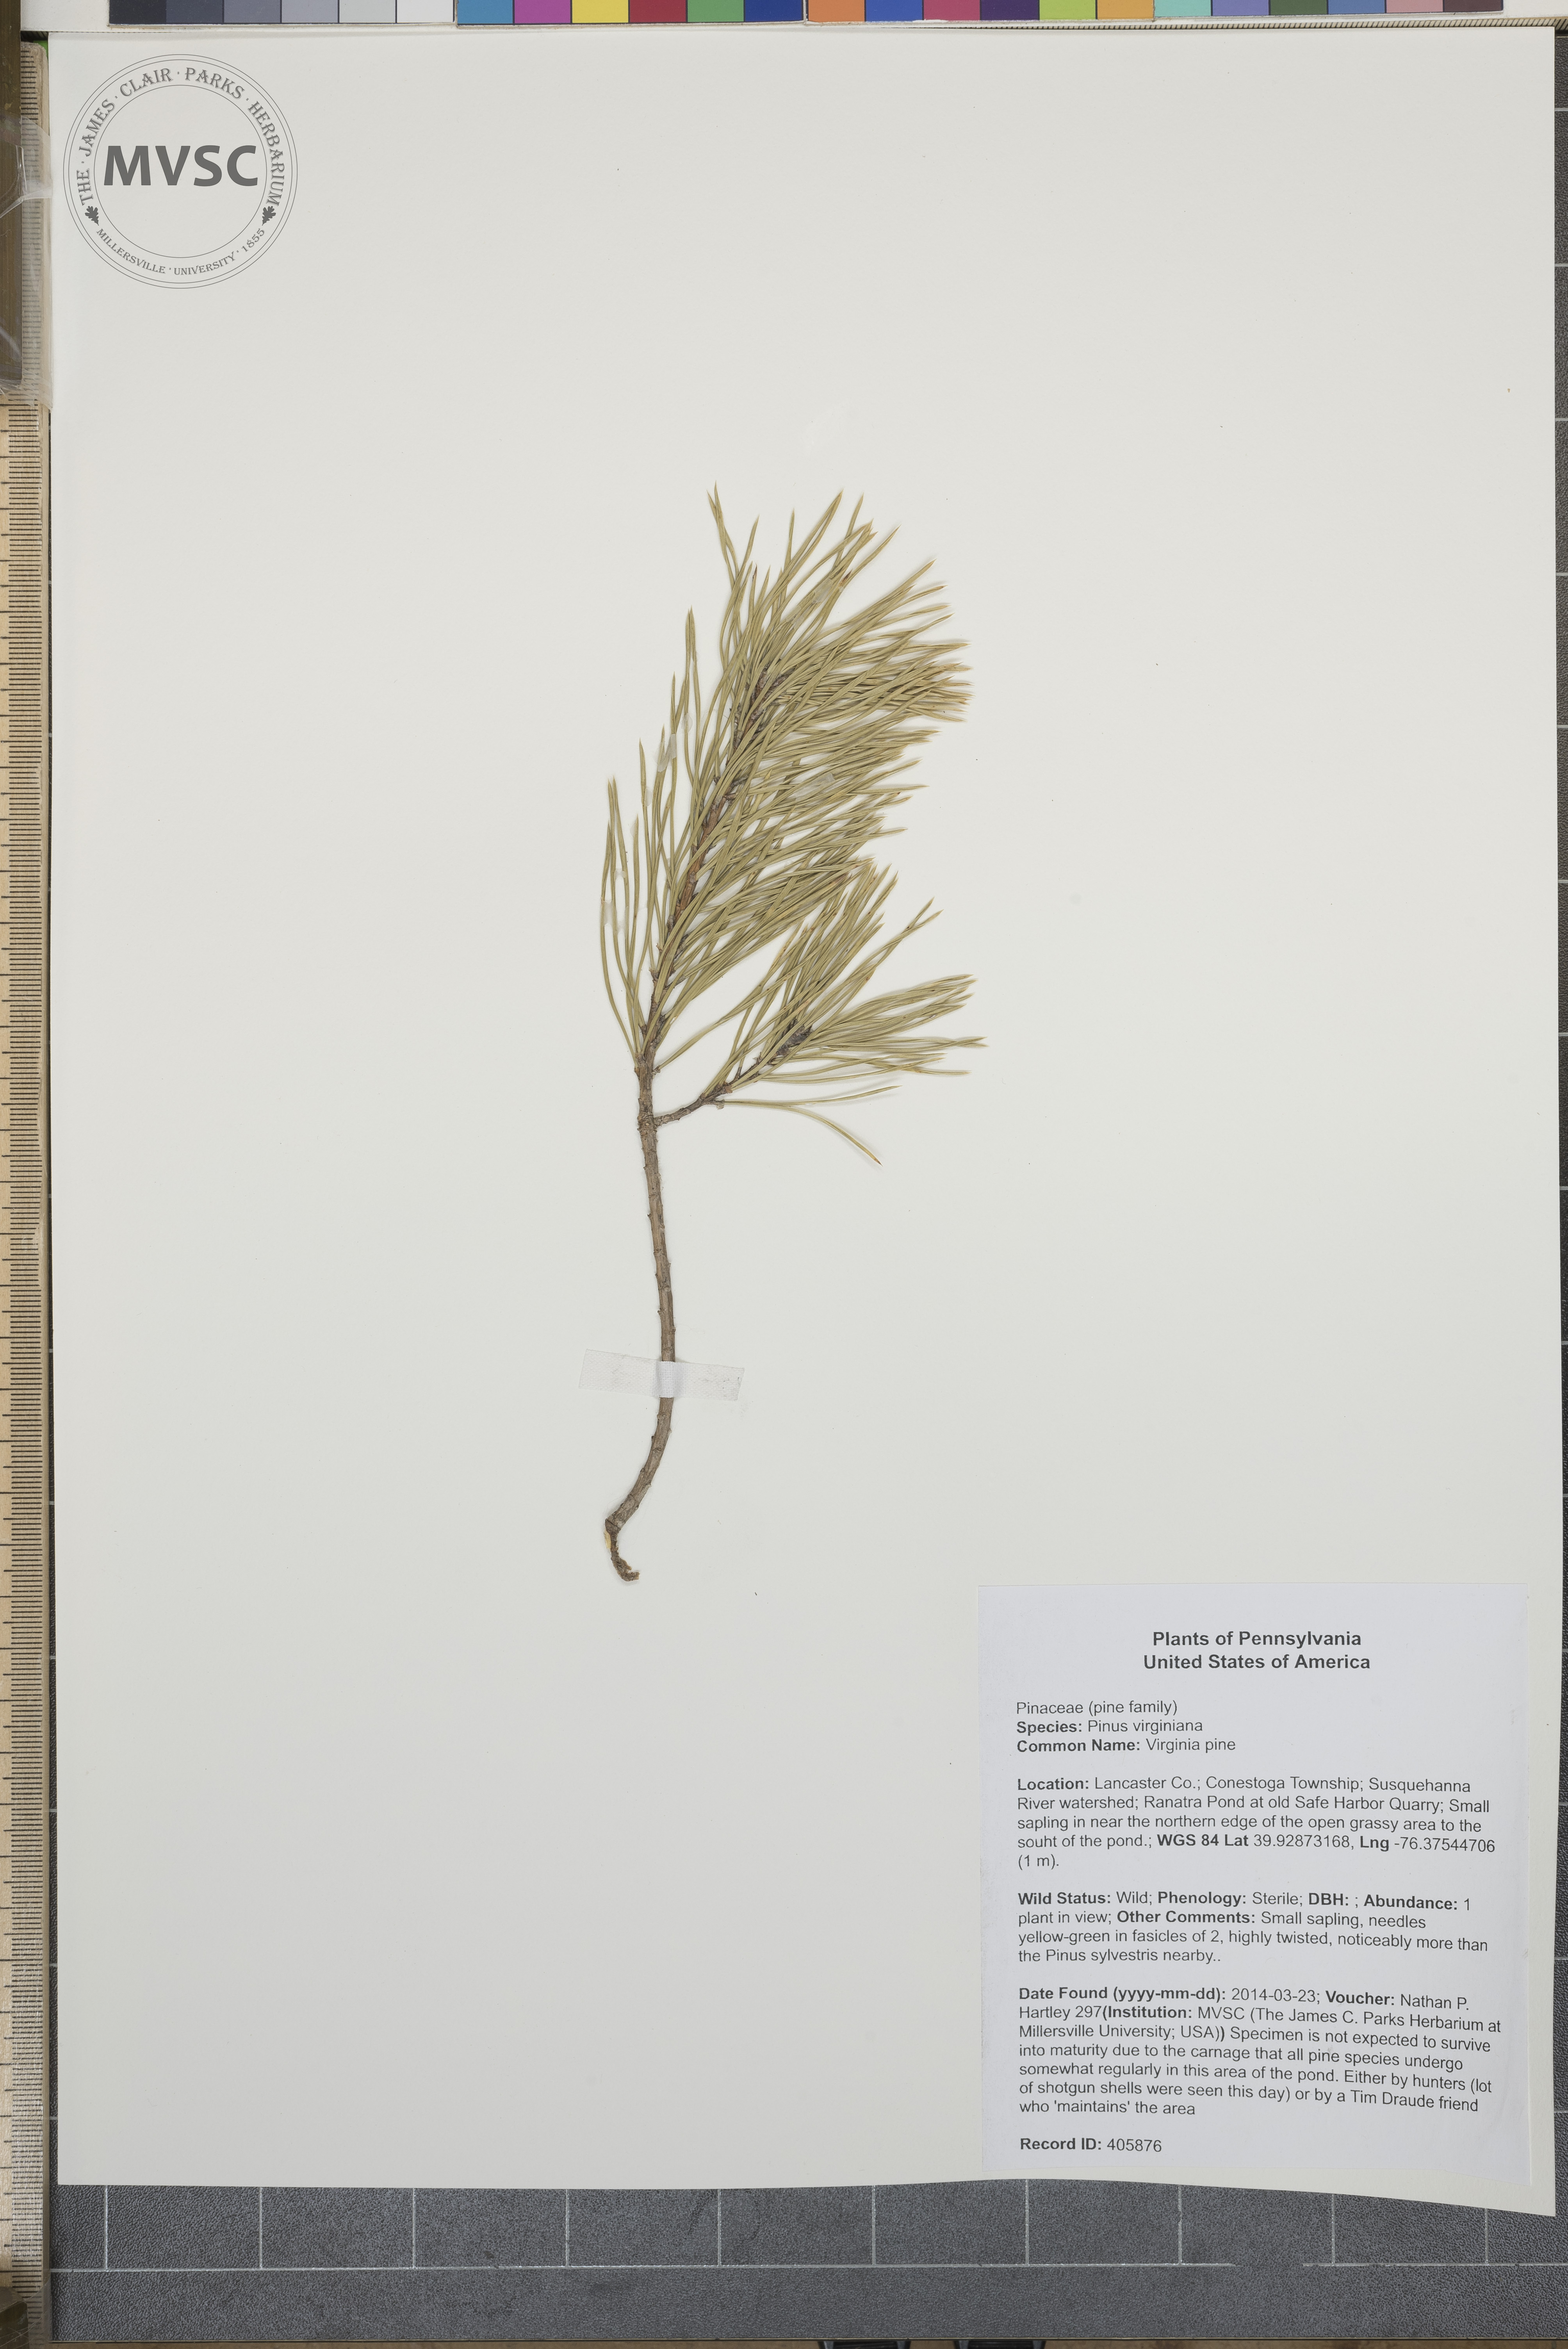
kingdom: Plantae
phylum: Tracheophyta
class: Pinopsida
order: Pinales
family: Pinaceae
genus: Pinus
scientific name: Pinus virginiana
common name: Virginia pine
